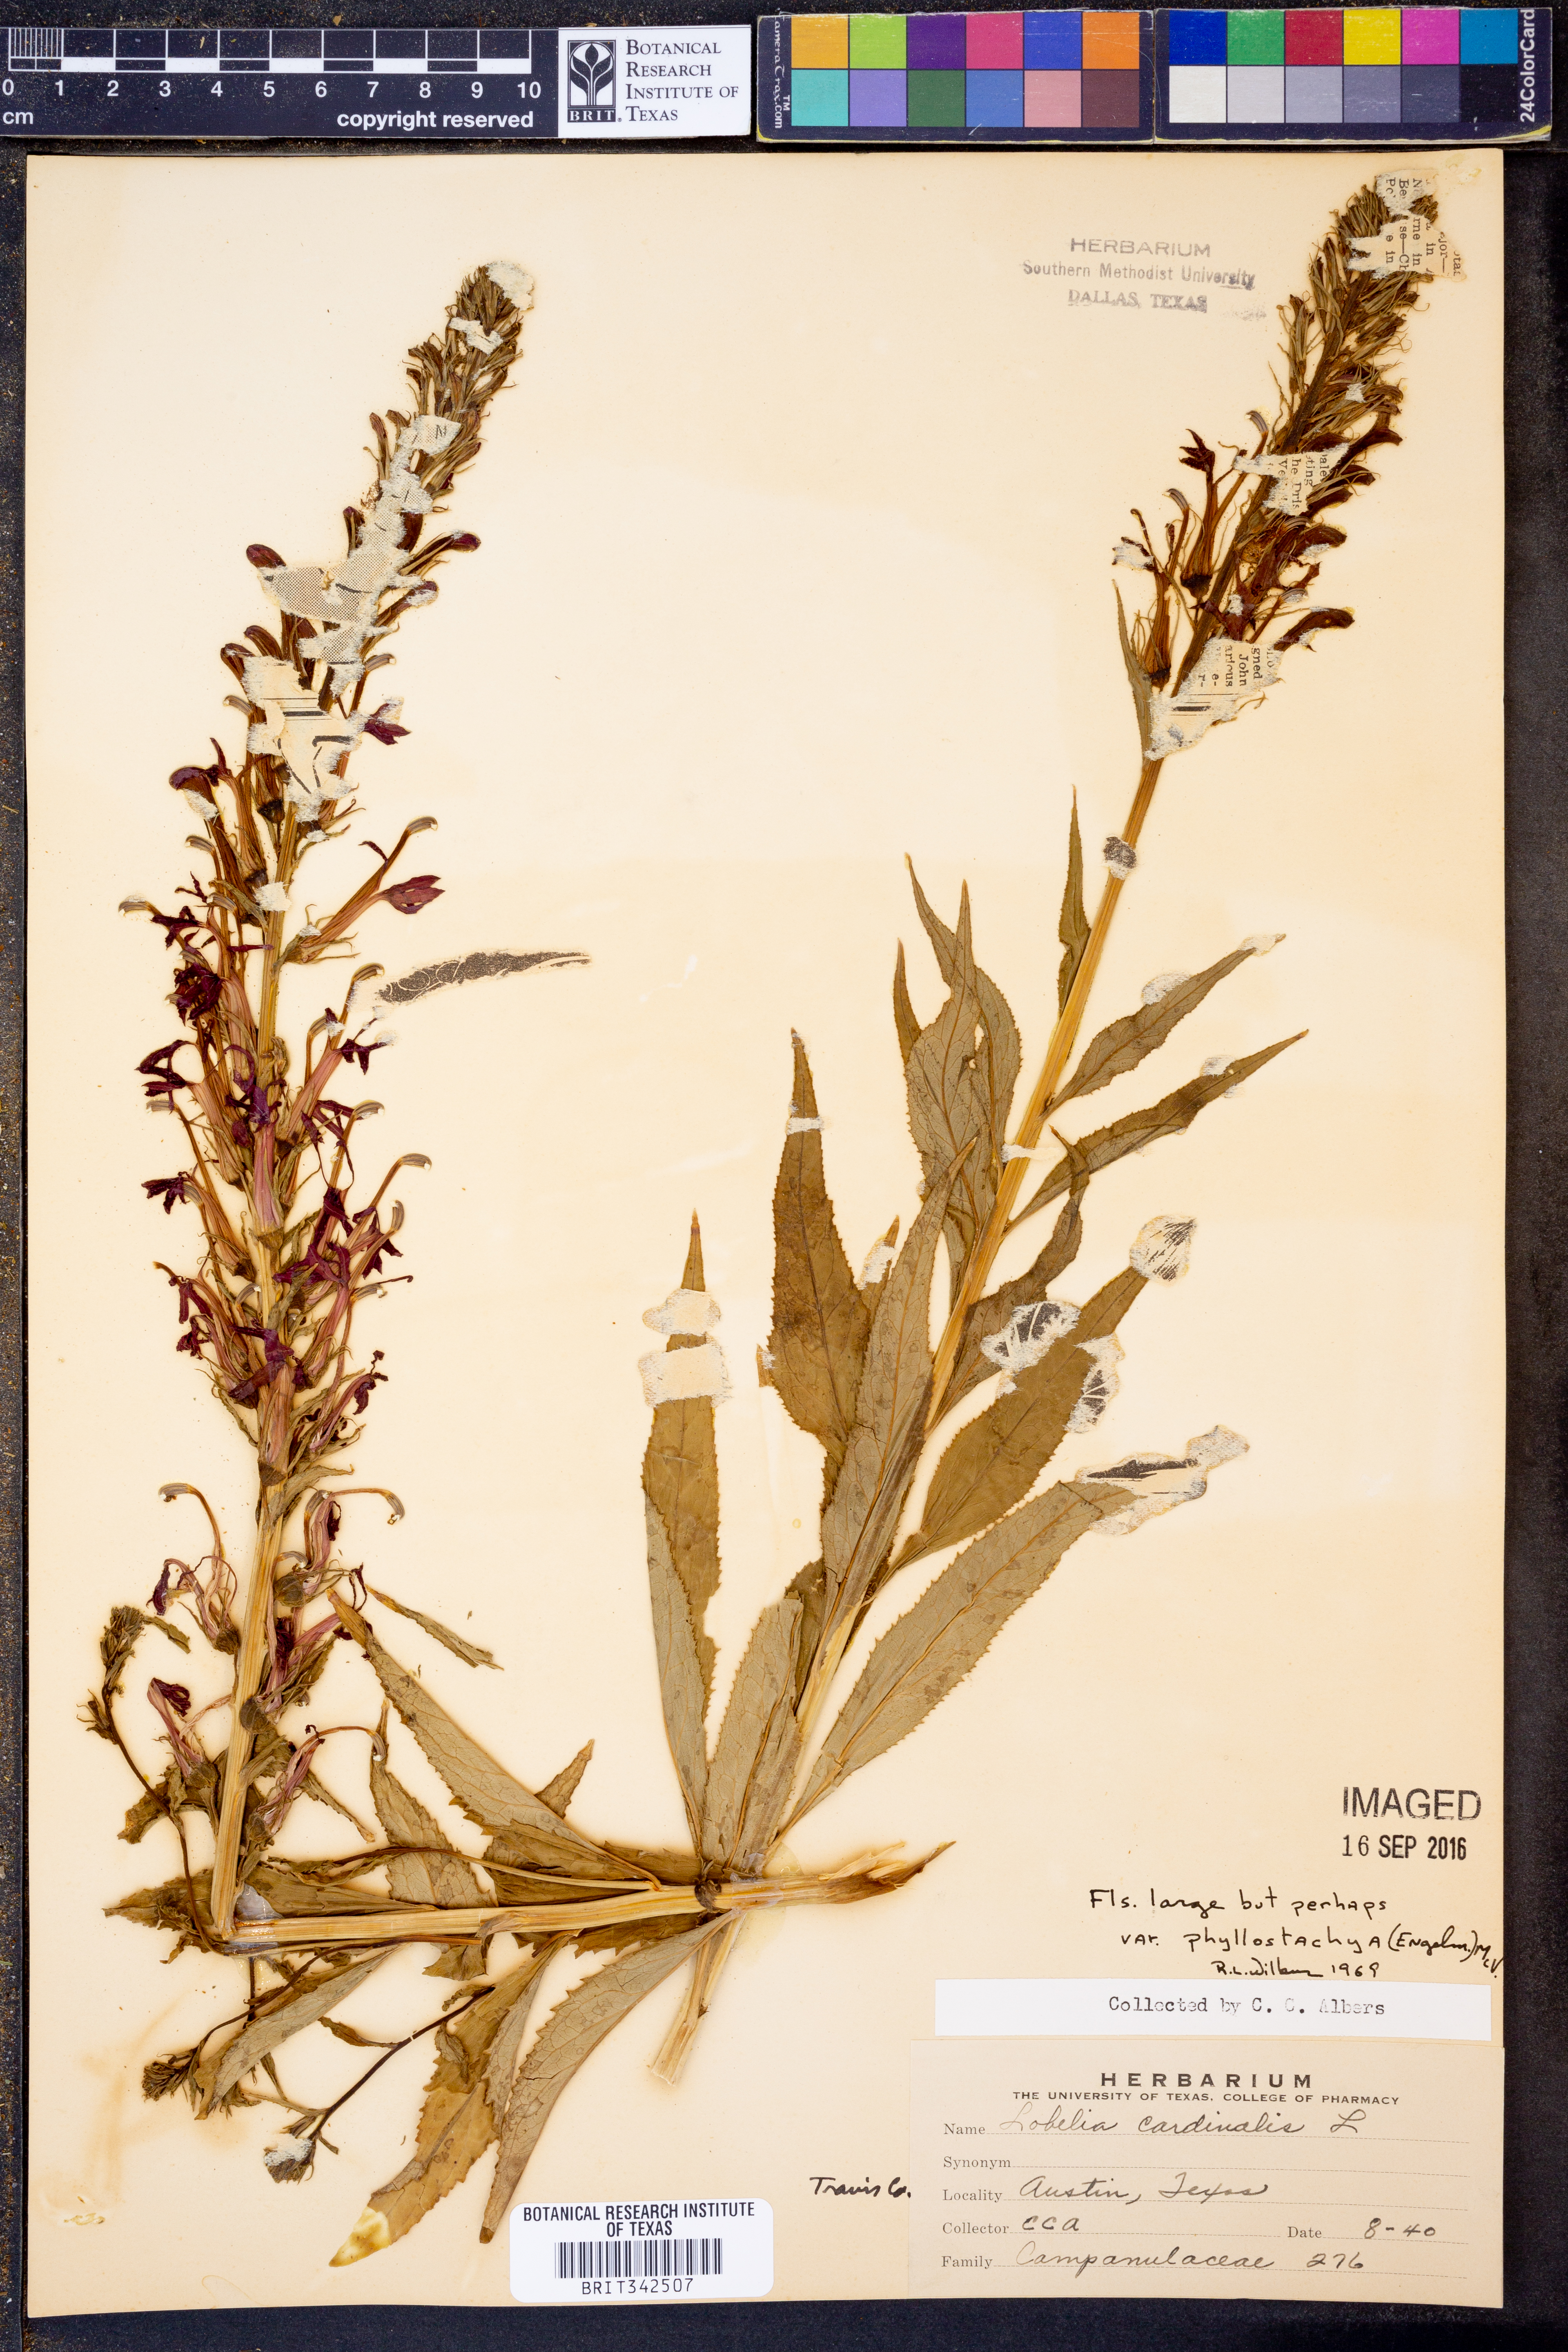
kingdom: Plantae
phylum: Tracheophyta
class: Magnoliopsida
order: Asterales
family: Campanulaceae
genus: Lobelia
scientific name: Lobelia cardinalis
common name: Cardinal flower
